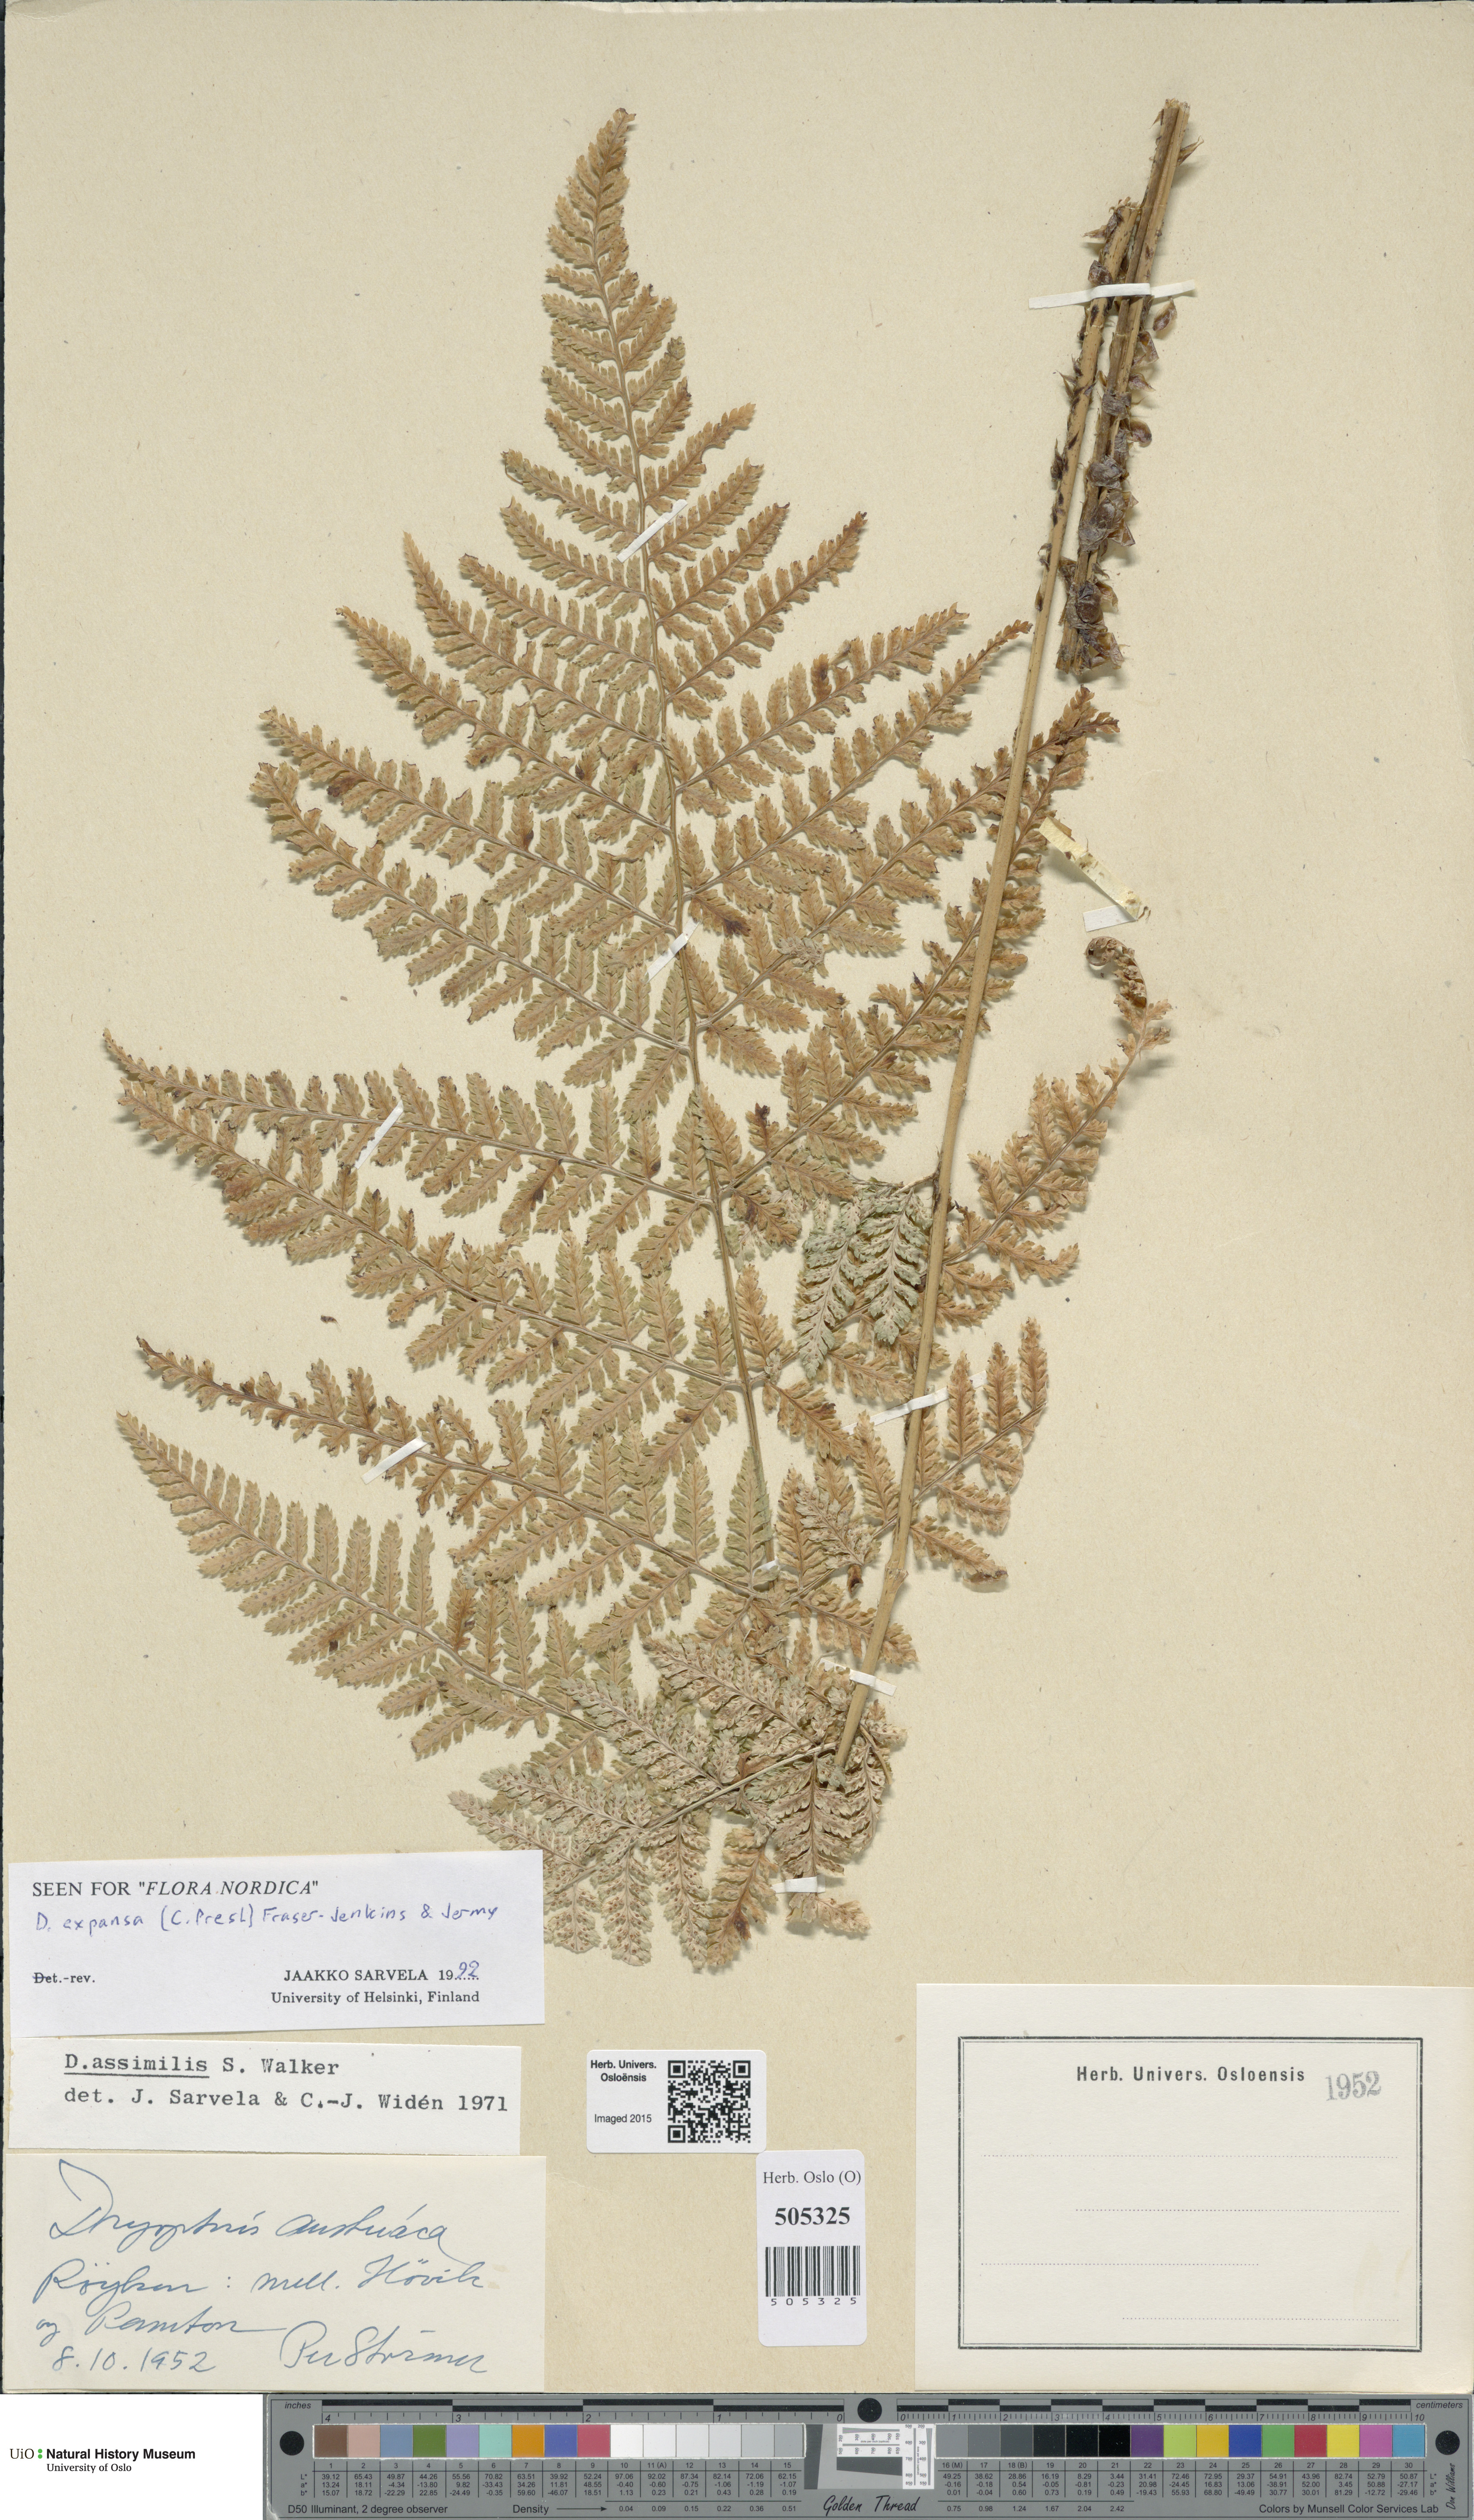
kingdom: Plantae
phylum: Tracheophyta
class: Polypodiopsida
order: Polypodiales
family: Dryopteridaceae
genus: Dryopteris
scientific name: Dryopteris expansa
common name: Northern buckler fern
